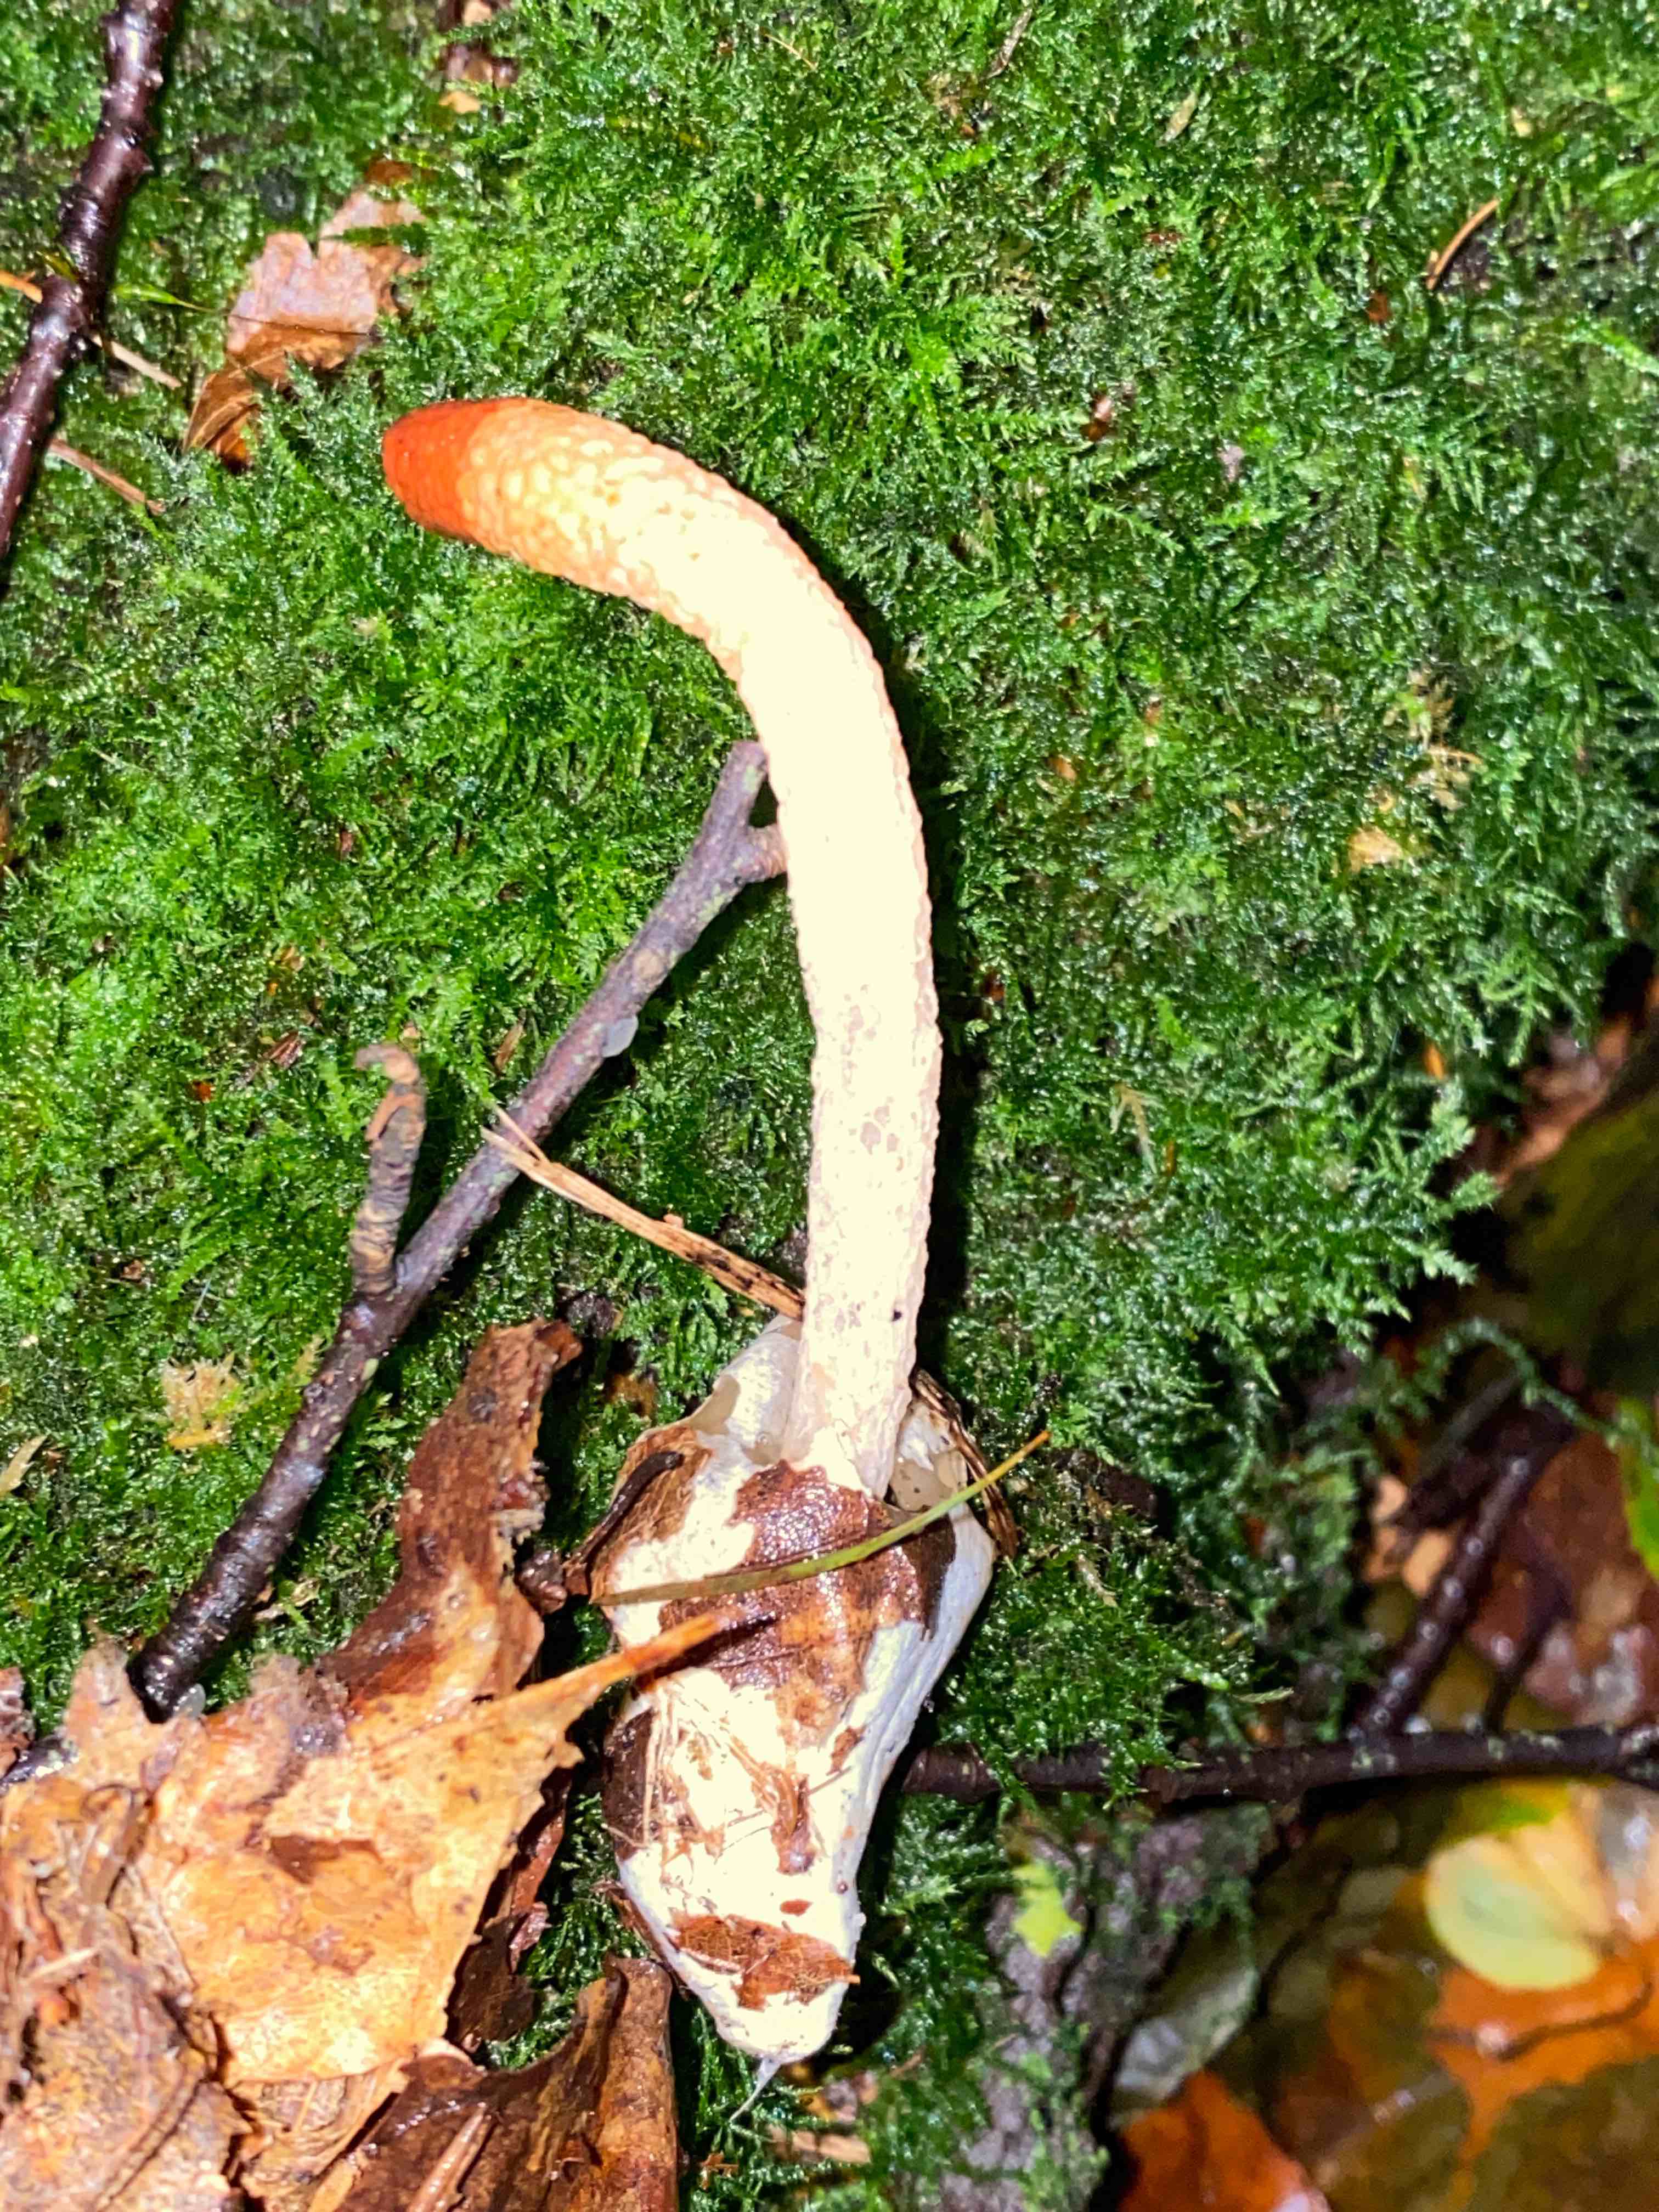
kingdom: Fungi
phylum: Basidiomycota
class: Agaricomycetes
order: Phallales
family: Phallaceae
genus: Mutinus
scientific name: Mutinus caninus
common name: hunde-stinksvamp
